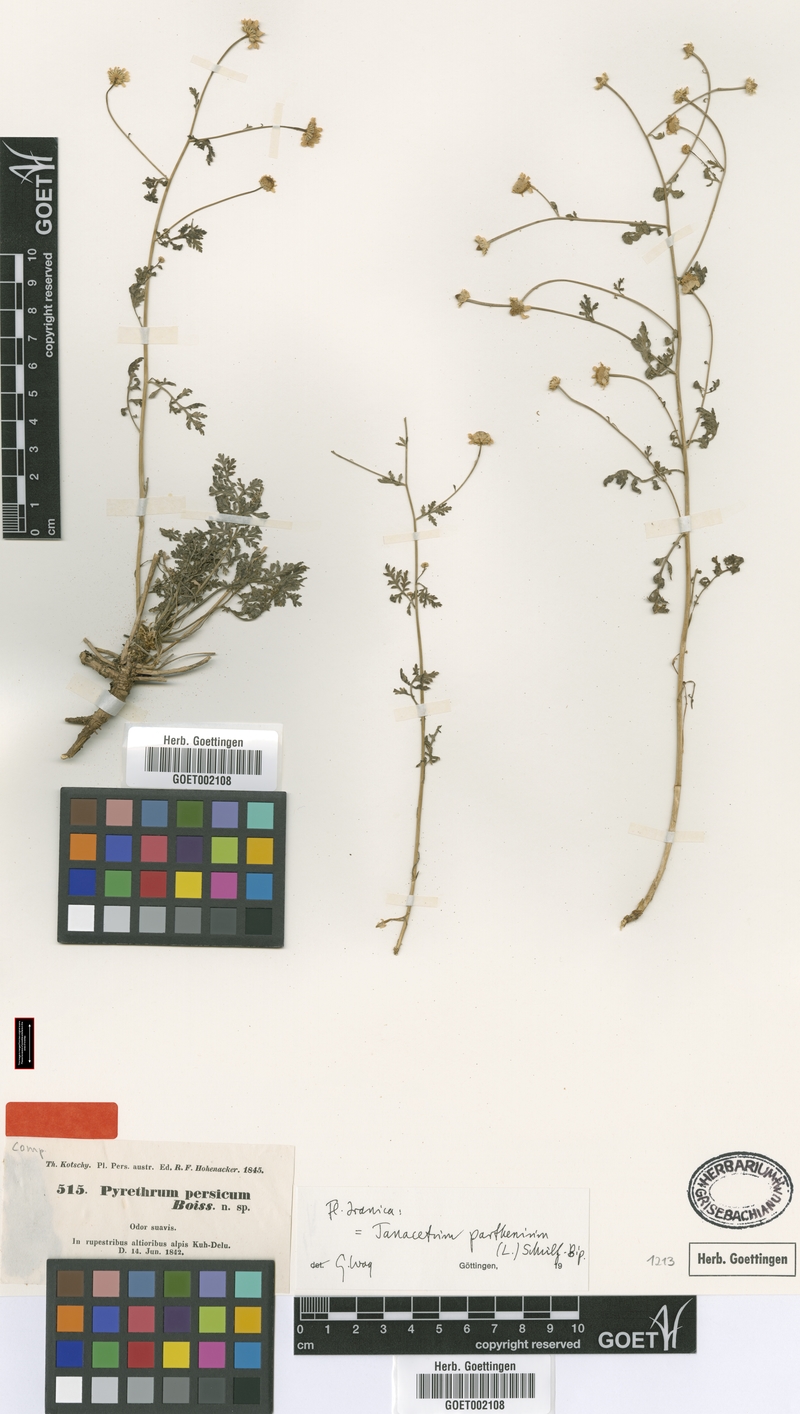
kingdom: Plantae
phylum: Tracheophyta
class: Magnoliopsida
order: Asterales
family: Asteraceae
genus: Tanacetum
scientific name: Tanacetum parthenium
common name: Feverfew
